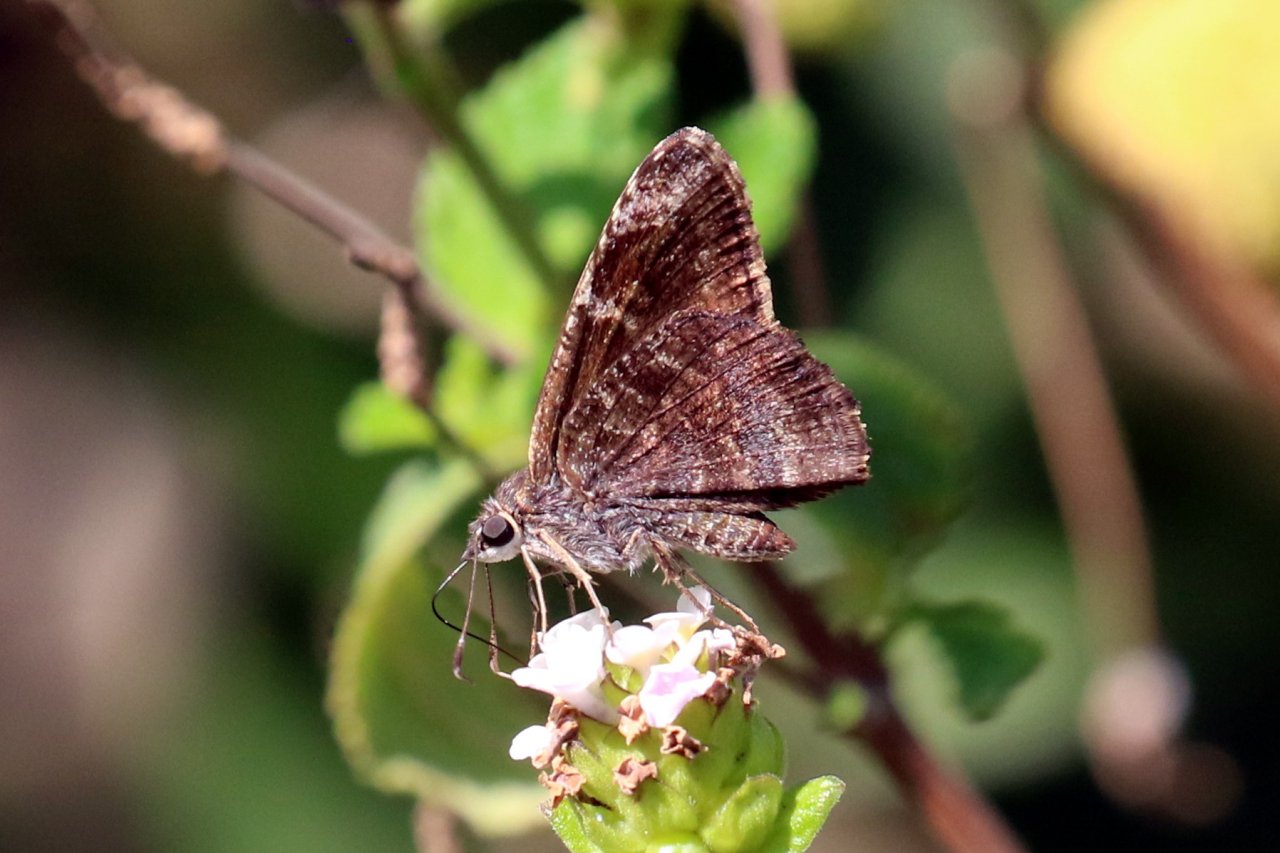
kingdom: Animalia
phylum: Arthropoda
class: Insecta
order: Lepidoptera
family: Hesperiidae
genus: Caicella
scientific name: Caicella calchas
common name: Mimosa Skipper
